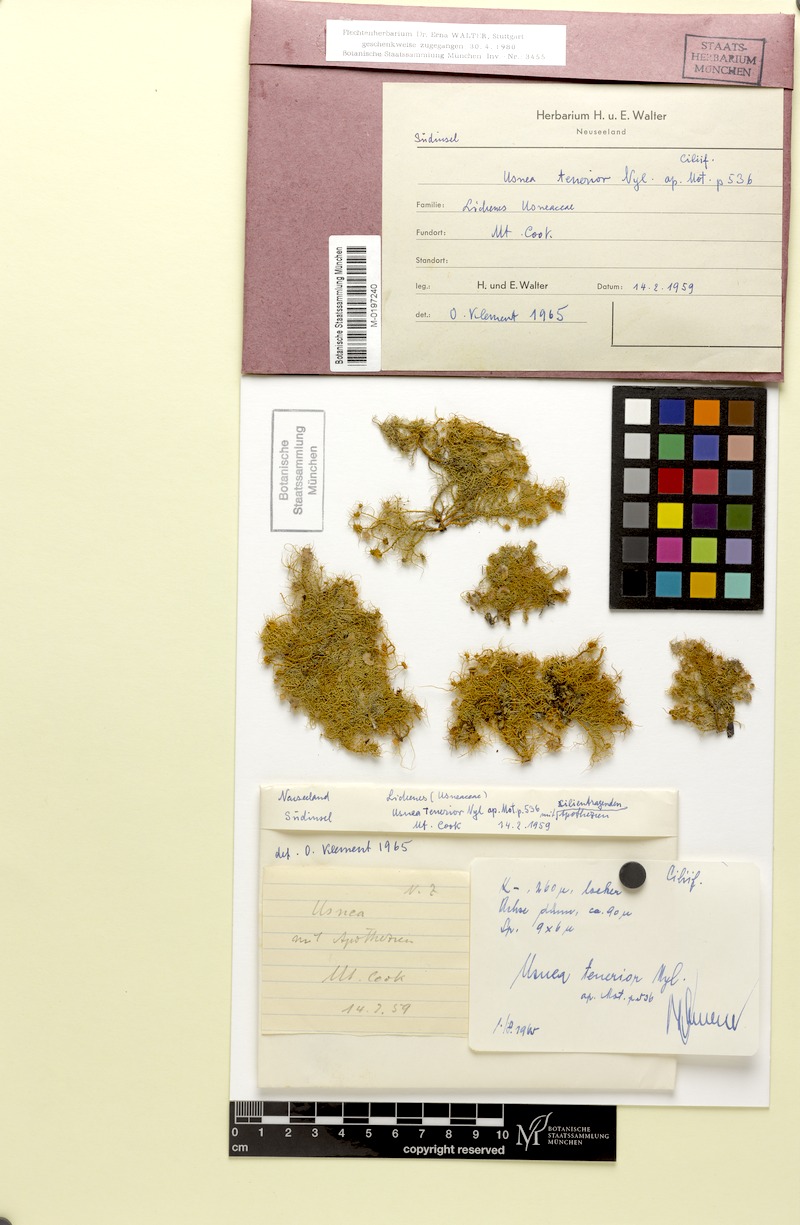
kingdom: Fungi
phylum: Ascomycota
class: Lecanoromycetes
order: Lecanorales
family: Parmeliaceae
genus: Usnea
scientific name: Usnea
